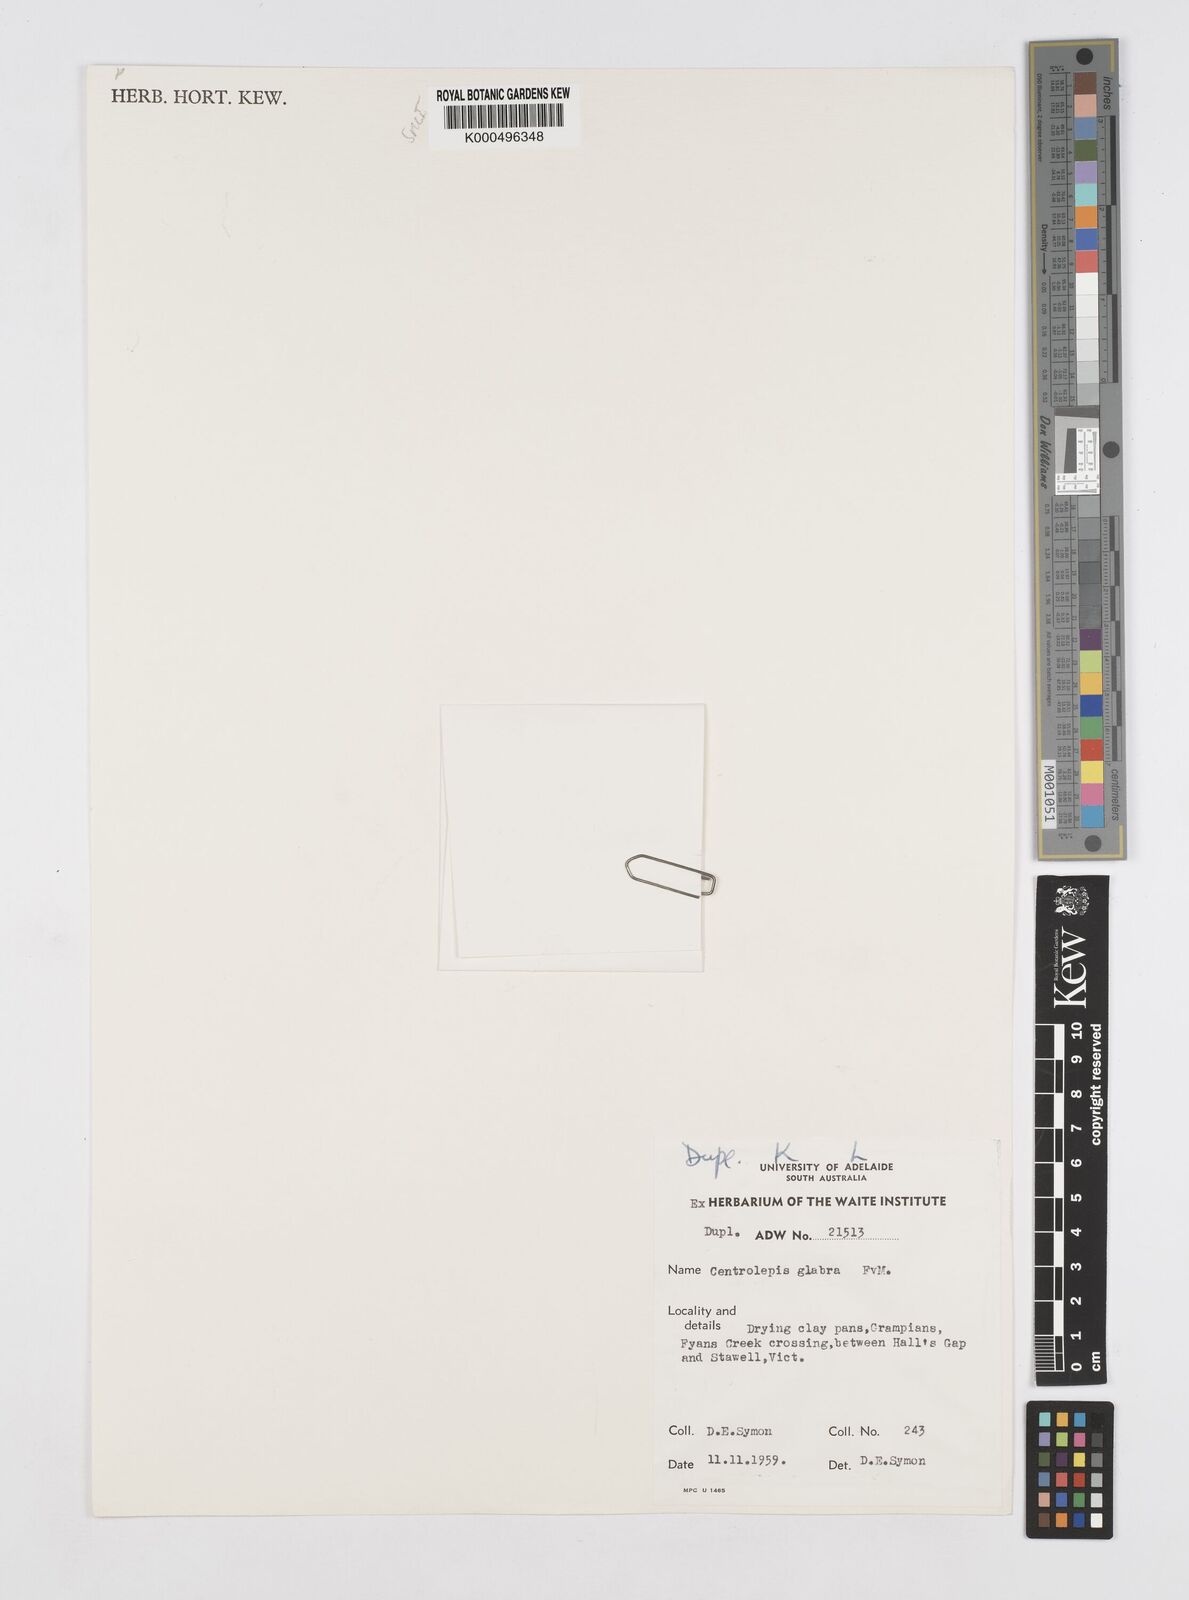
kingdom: Plantae
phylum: Tracheophyta
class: Liliopsida
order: Poales
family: Restionaceae
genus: Centrolepis
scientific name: Centrolepis glabra
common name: Smooth centrolepis
